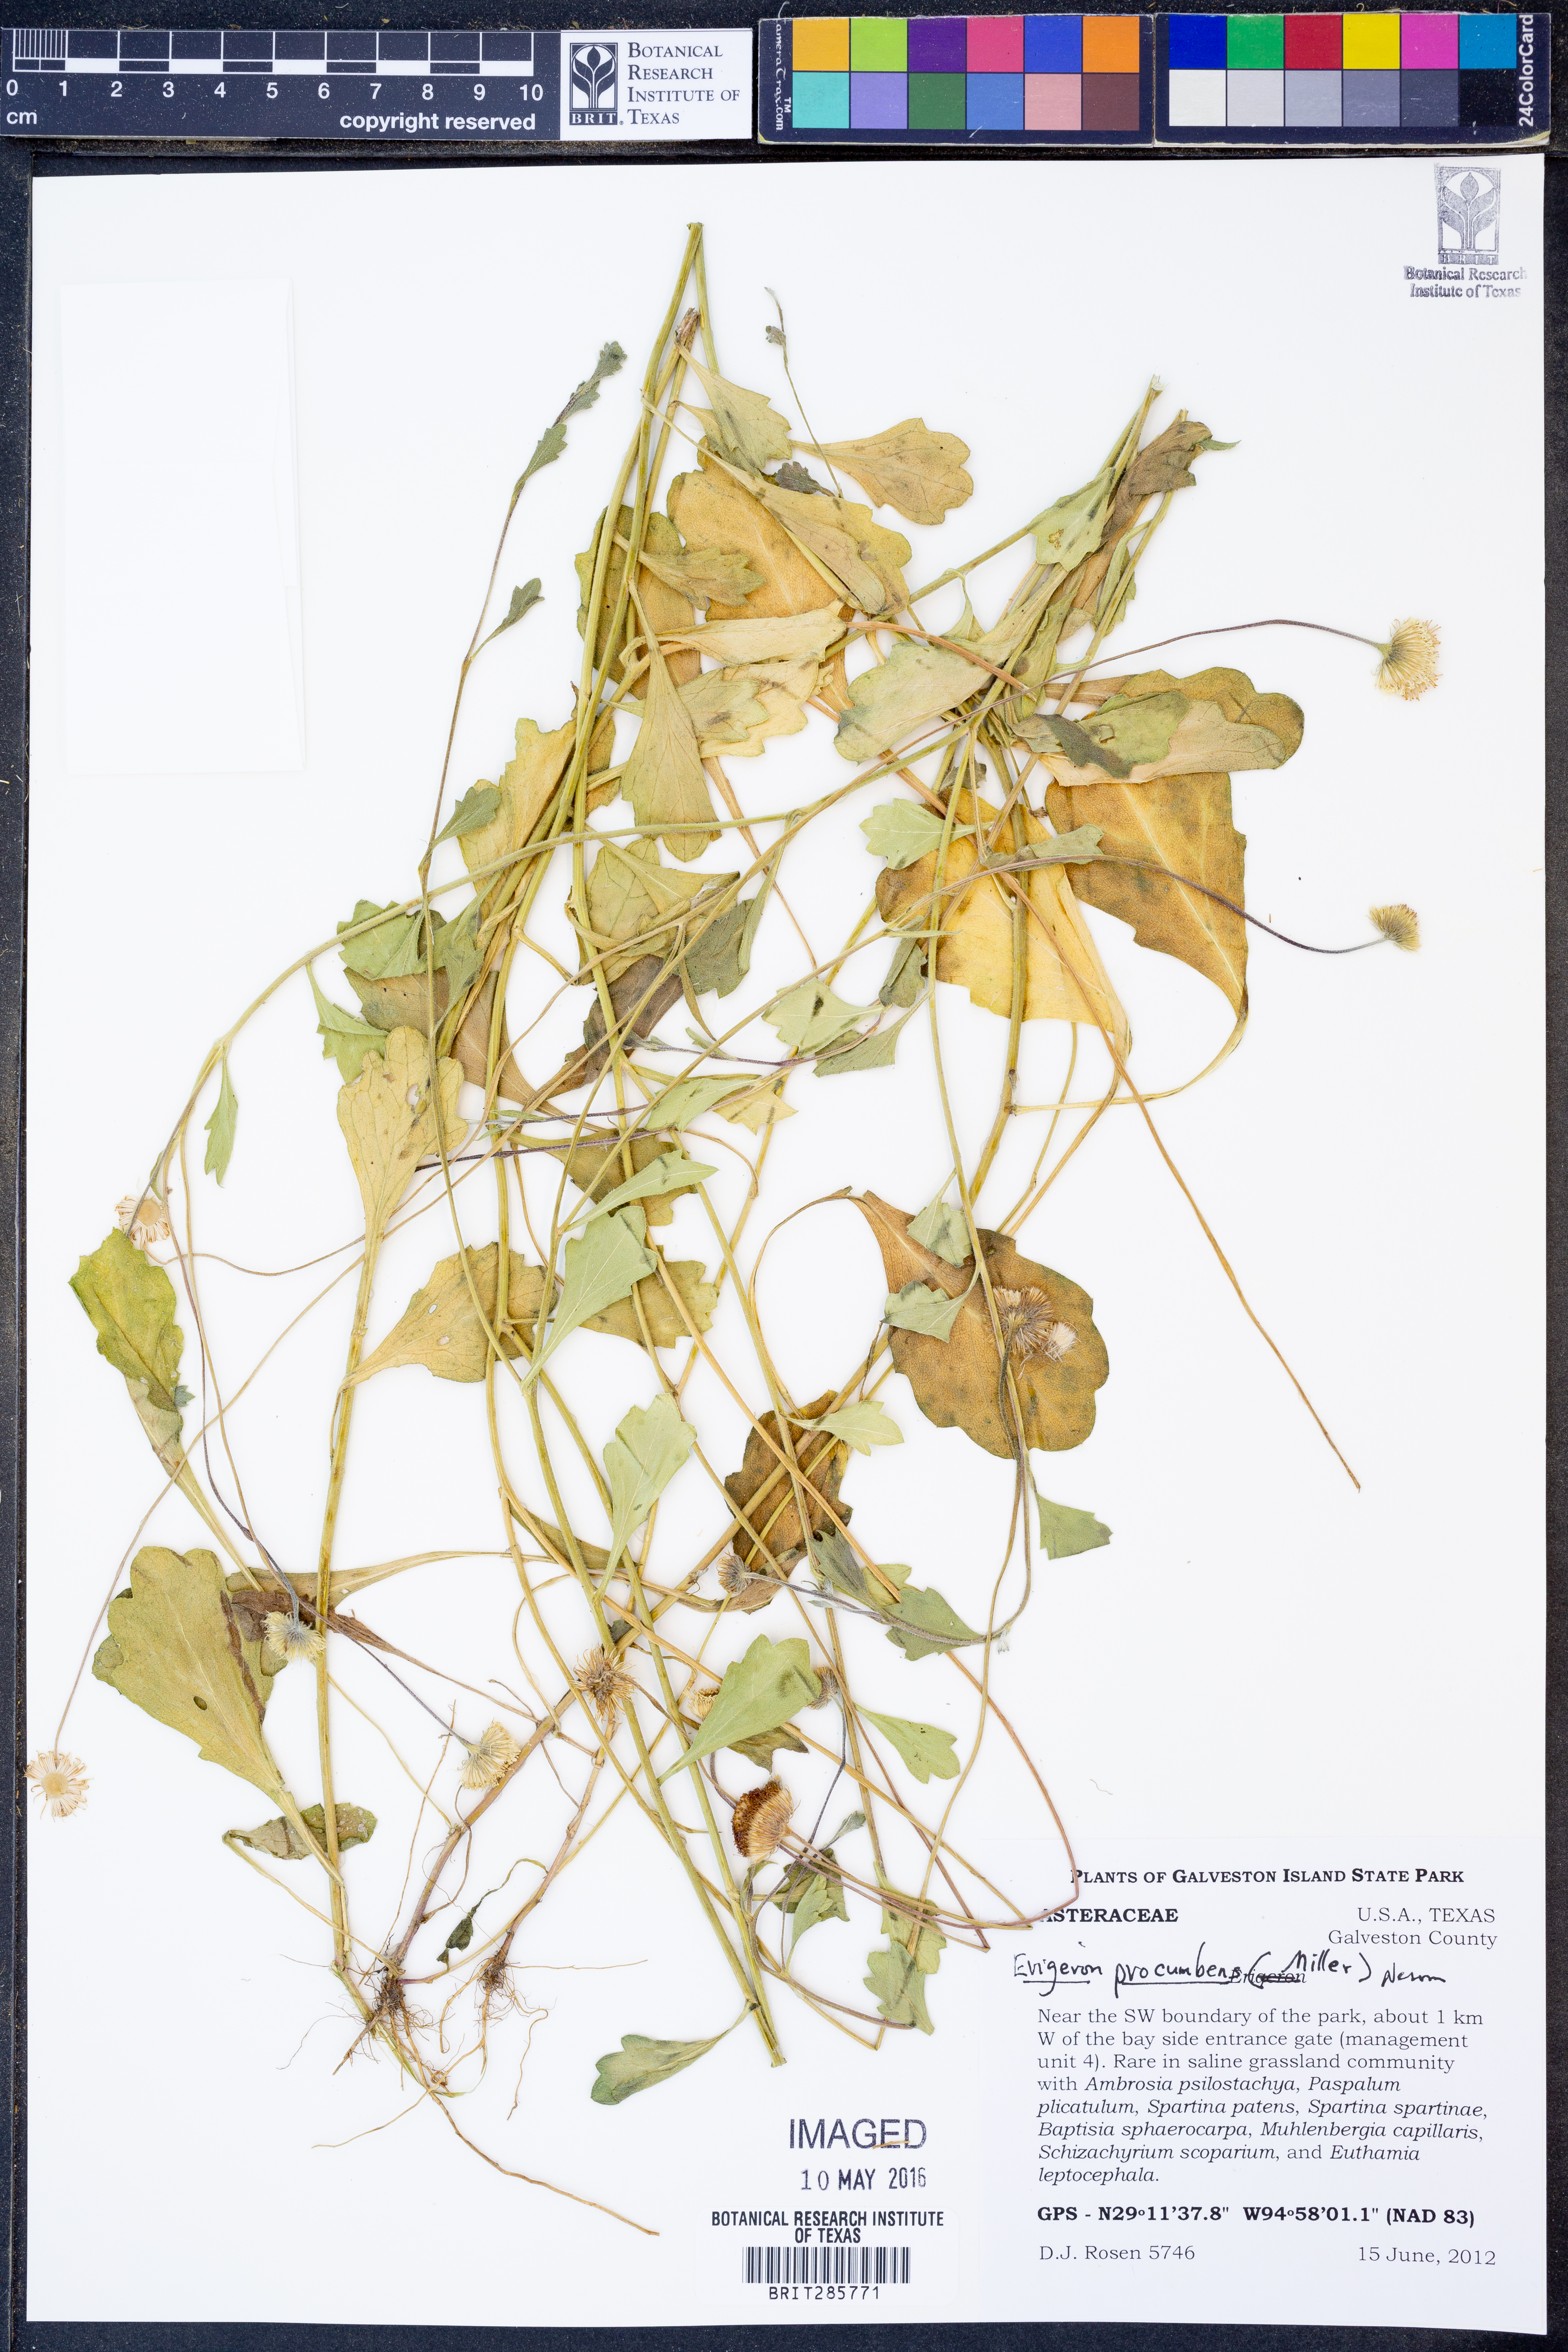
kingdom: Plantae
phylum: Tracheophyta
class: Magnoliopsida
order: Asterales
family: Asteraceae
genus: Erigeron
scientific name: Erigeron procumbens
